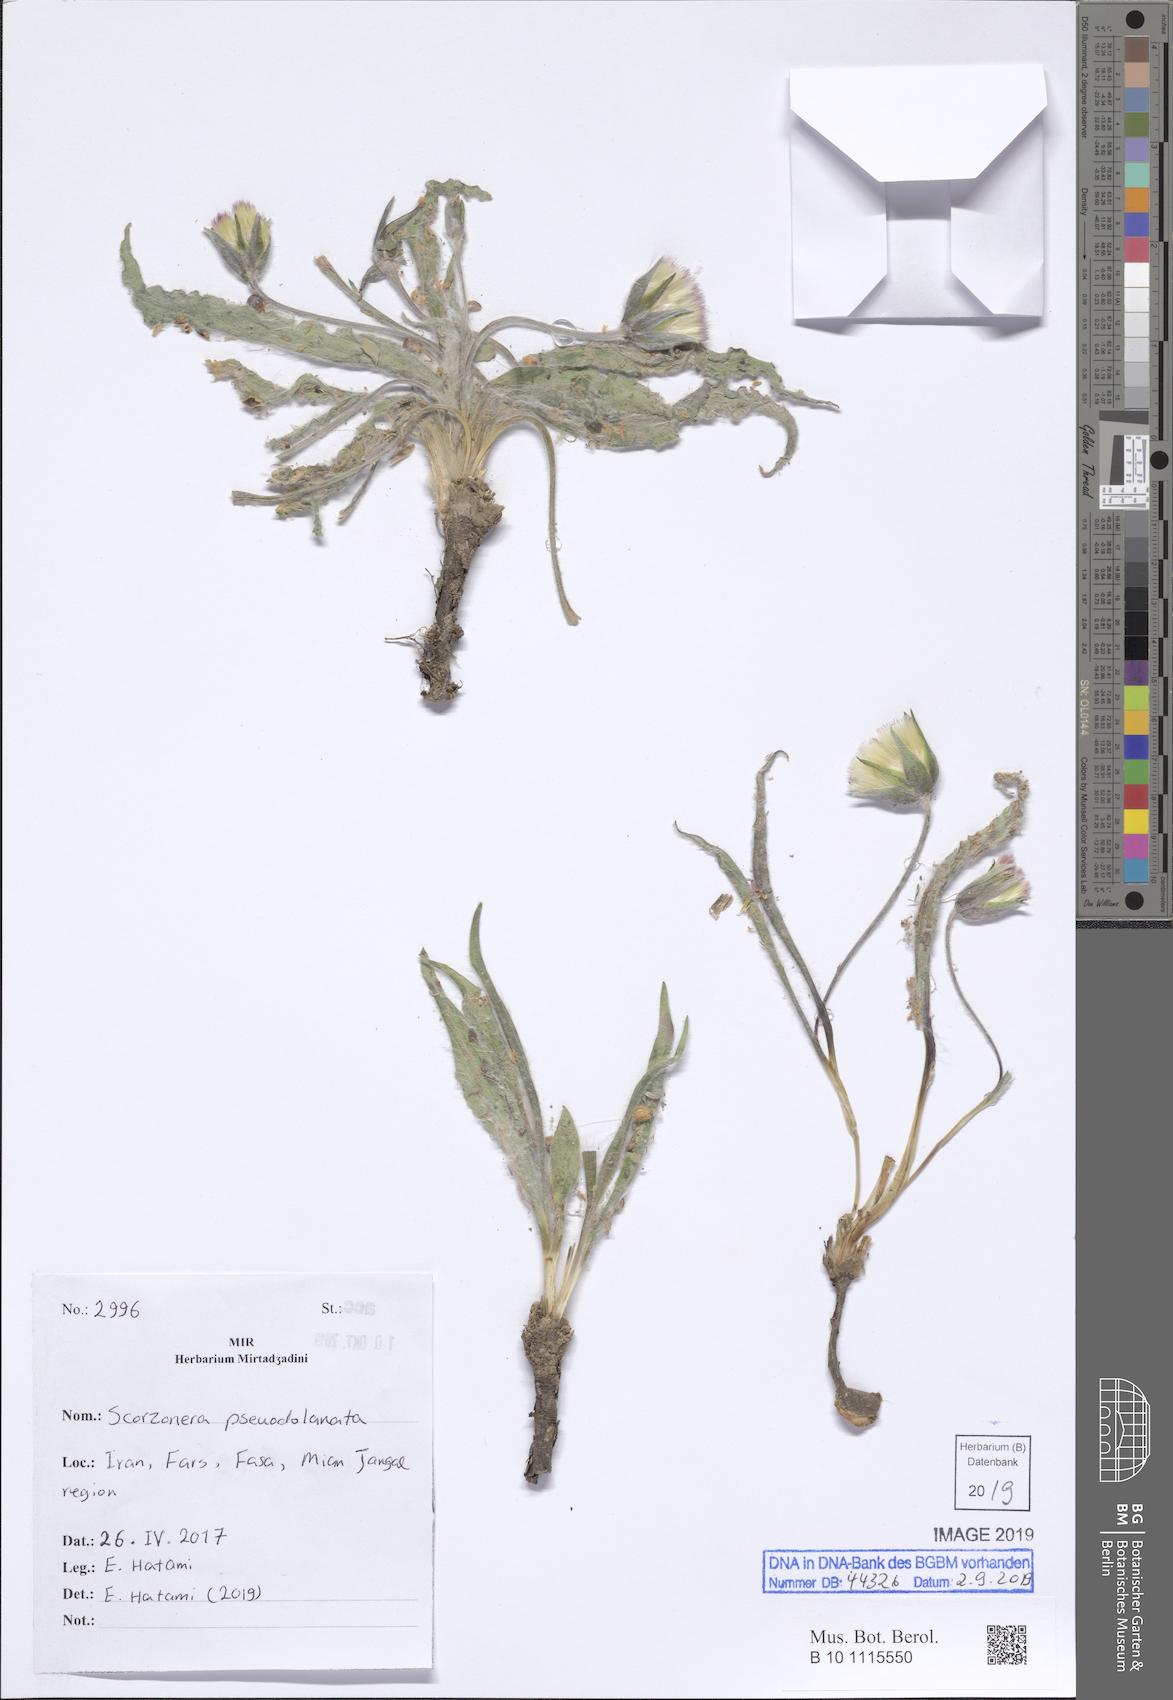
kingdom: Plantae
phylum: Tracheophyta
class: Magnoliopsida
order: Asterales
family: Asteraceae
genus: Bocquetia
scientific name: Bocquetia lanata
